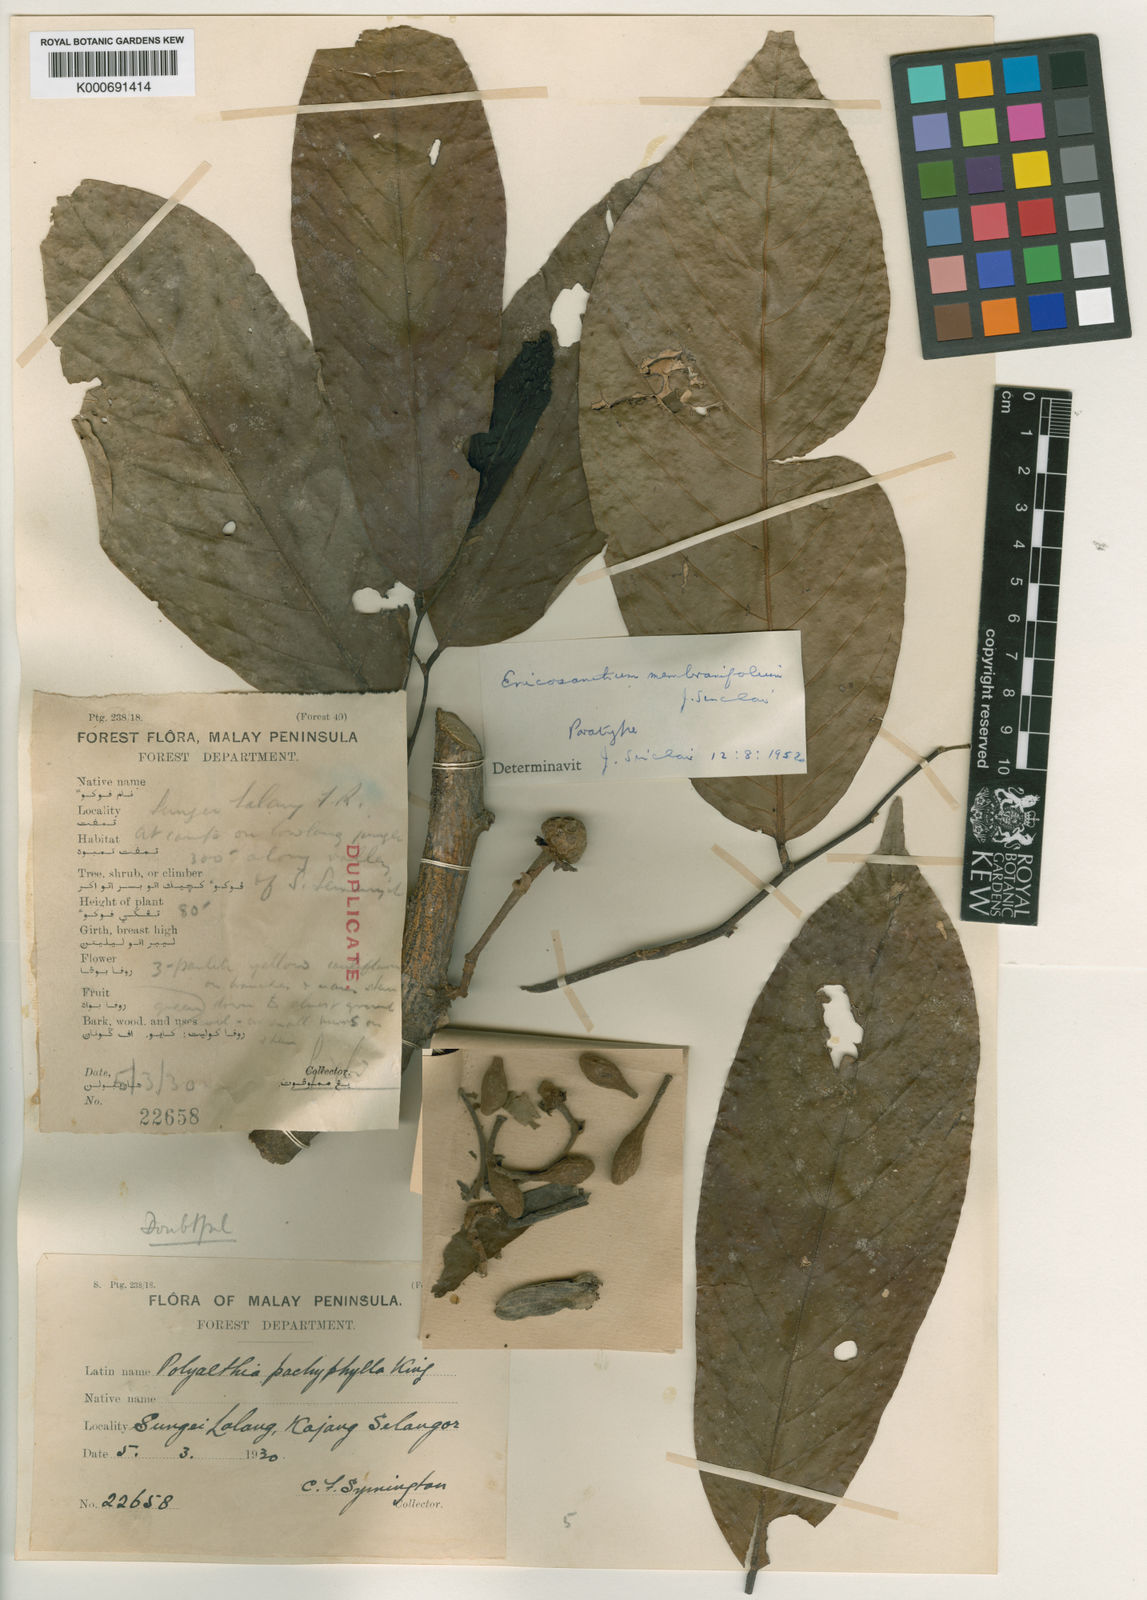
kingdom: Plantae
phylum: Tracheophyta
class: Magnoliopsida
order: Magnoliales
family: Annonaceae
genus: Enicosanthum
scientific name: Enicosanthum membranifolium
